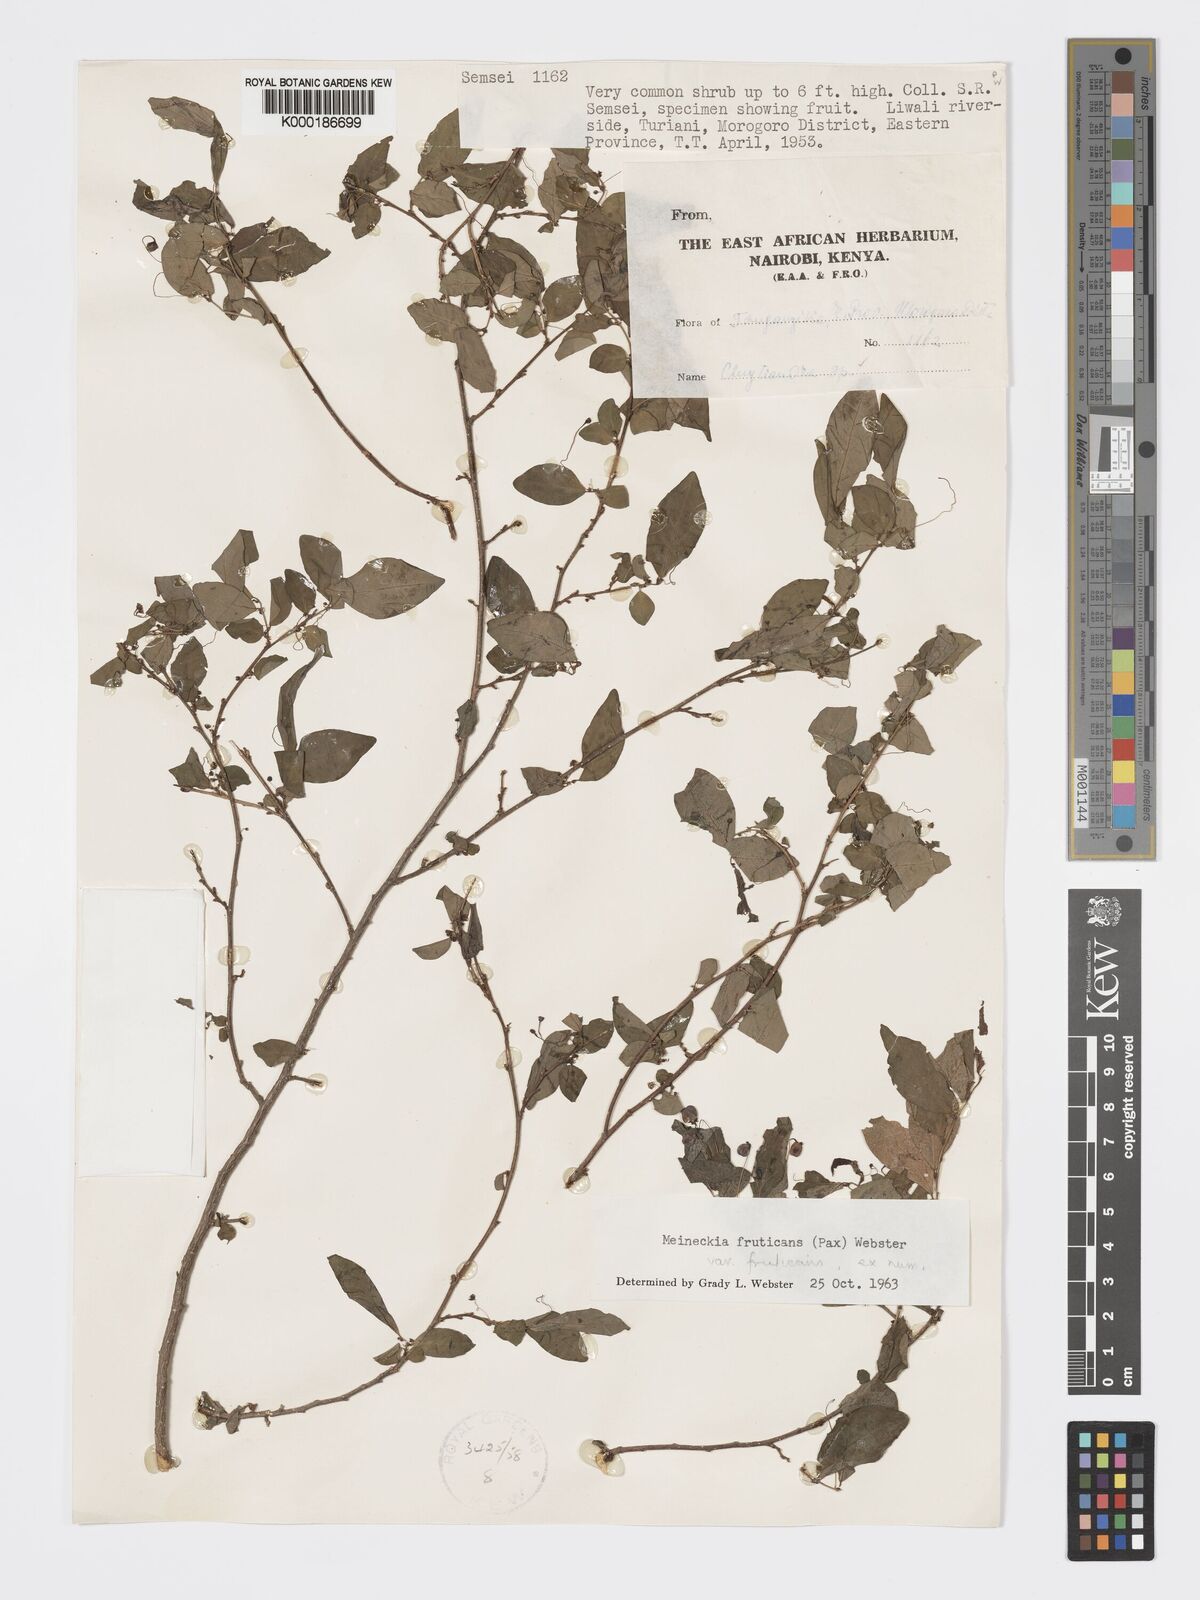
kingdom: Plantae
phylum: Tracheophyta
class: Magnoliopsida
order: Malpighiales
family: Phyllanthaceae
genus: Meineckia
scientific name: Meineckia fruticans
